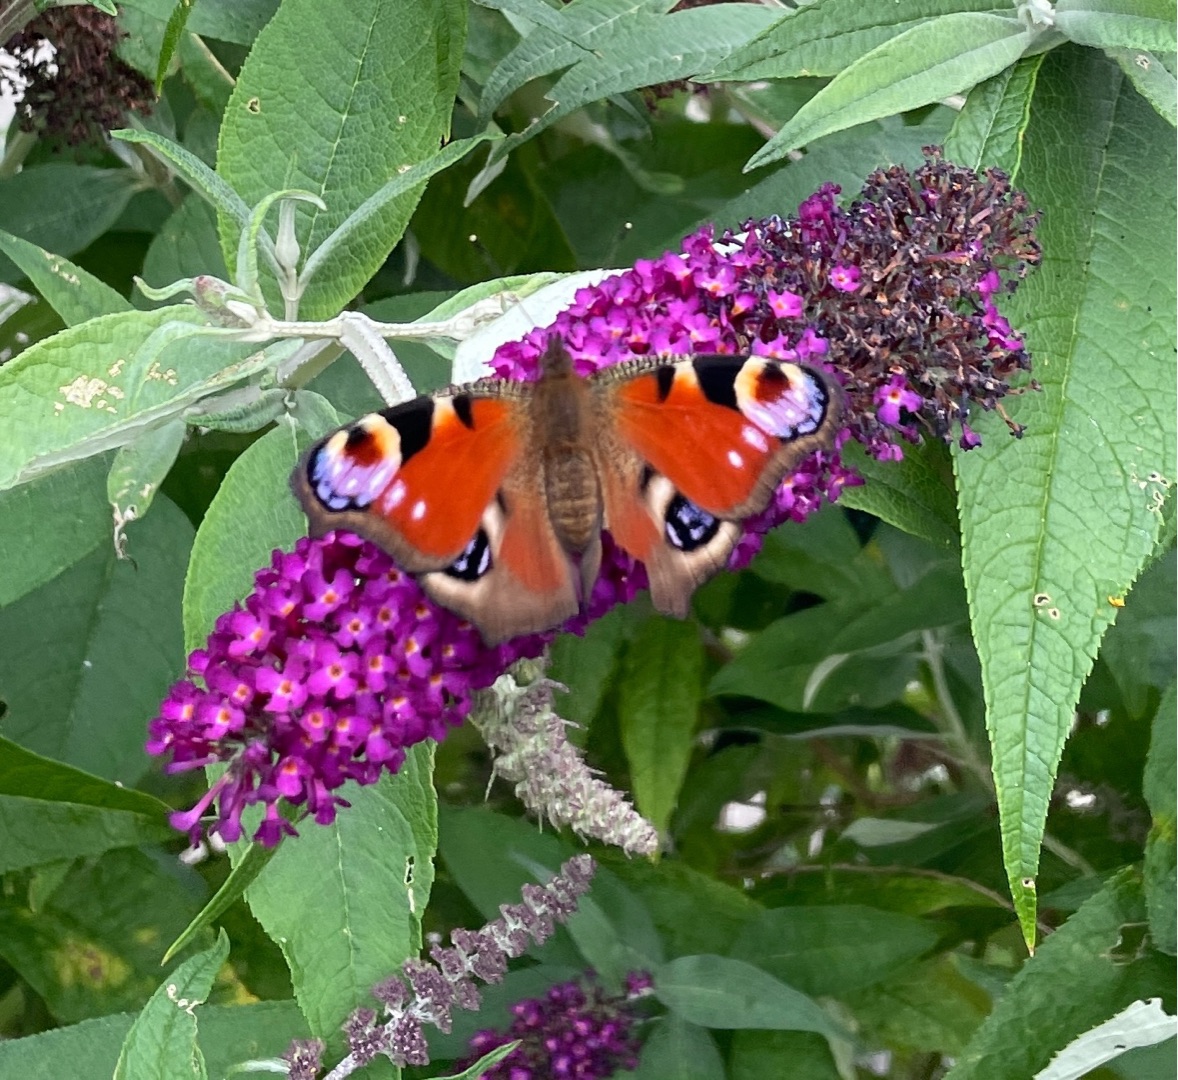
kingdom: Animalia
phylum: Arthropoda
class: Insecta
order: Lepidoptera
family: Nymphalidae
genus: Aglais
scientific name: Aglais io
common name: Dagpåfugleøje
